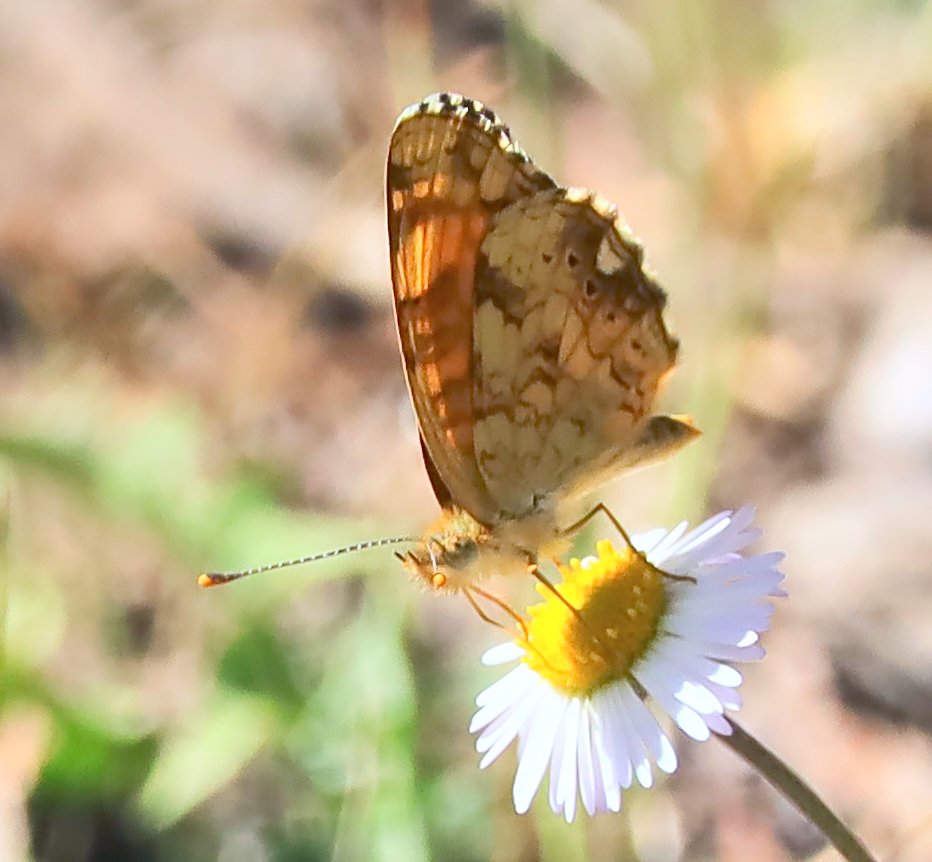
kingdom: Animalia
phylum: Arthropoda
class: Insecta
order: Lepidoptera
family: Nymphalidae
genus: Eresia
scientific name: Eresia aveyrona
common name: Mylitta Crescent
